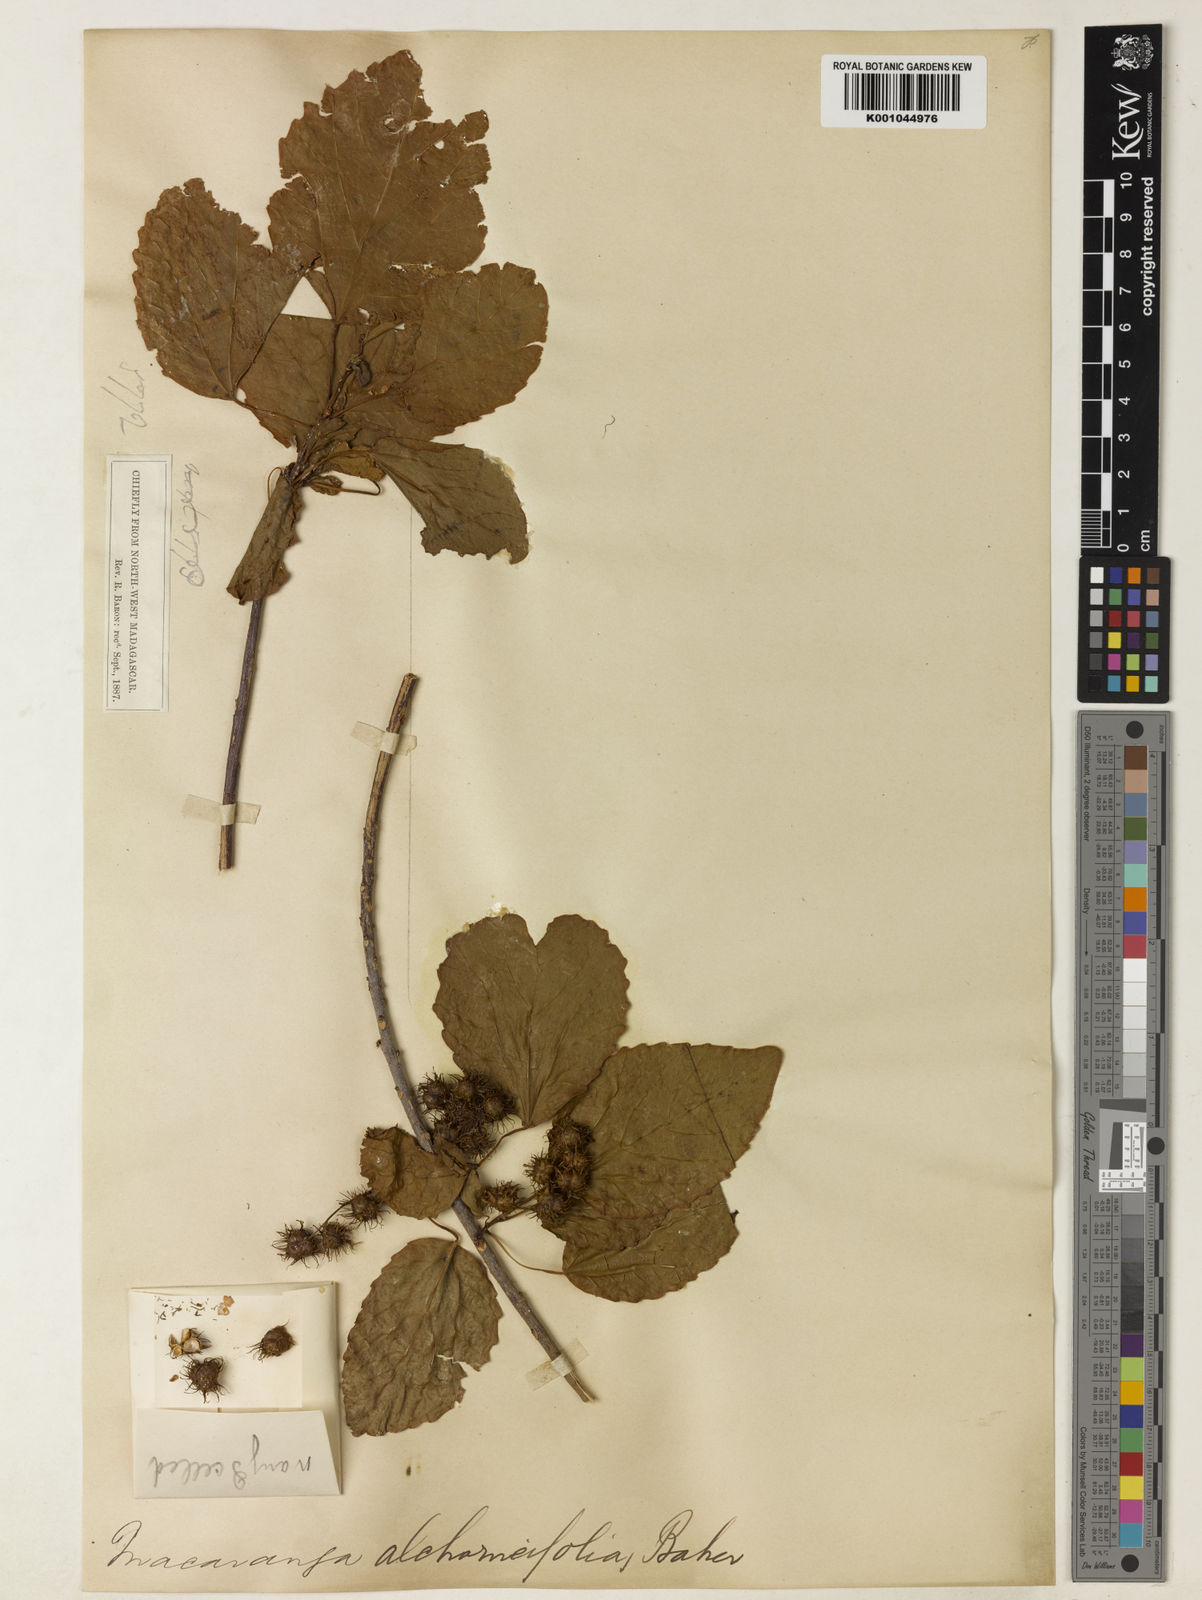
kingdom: Plantae
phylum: Tracheophyta
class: Magnoliopsida
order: Malpighiales
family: Euphorbiaceae
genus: Alchornea
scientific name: Alchornea alnifolia
